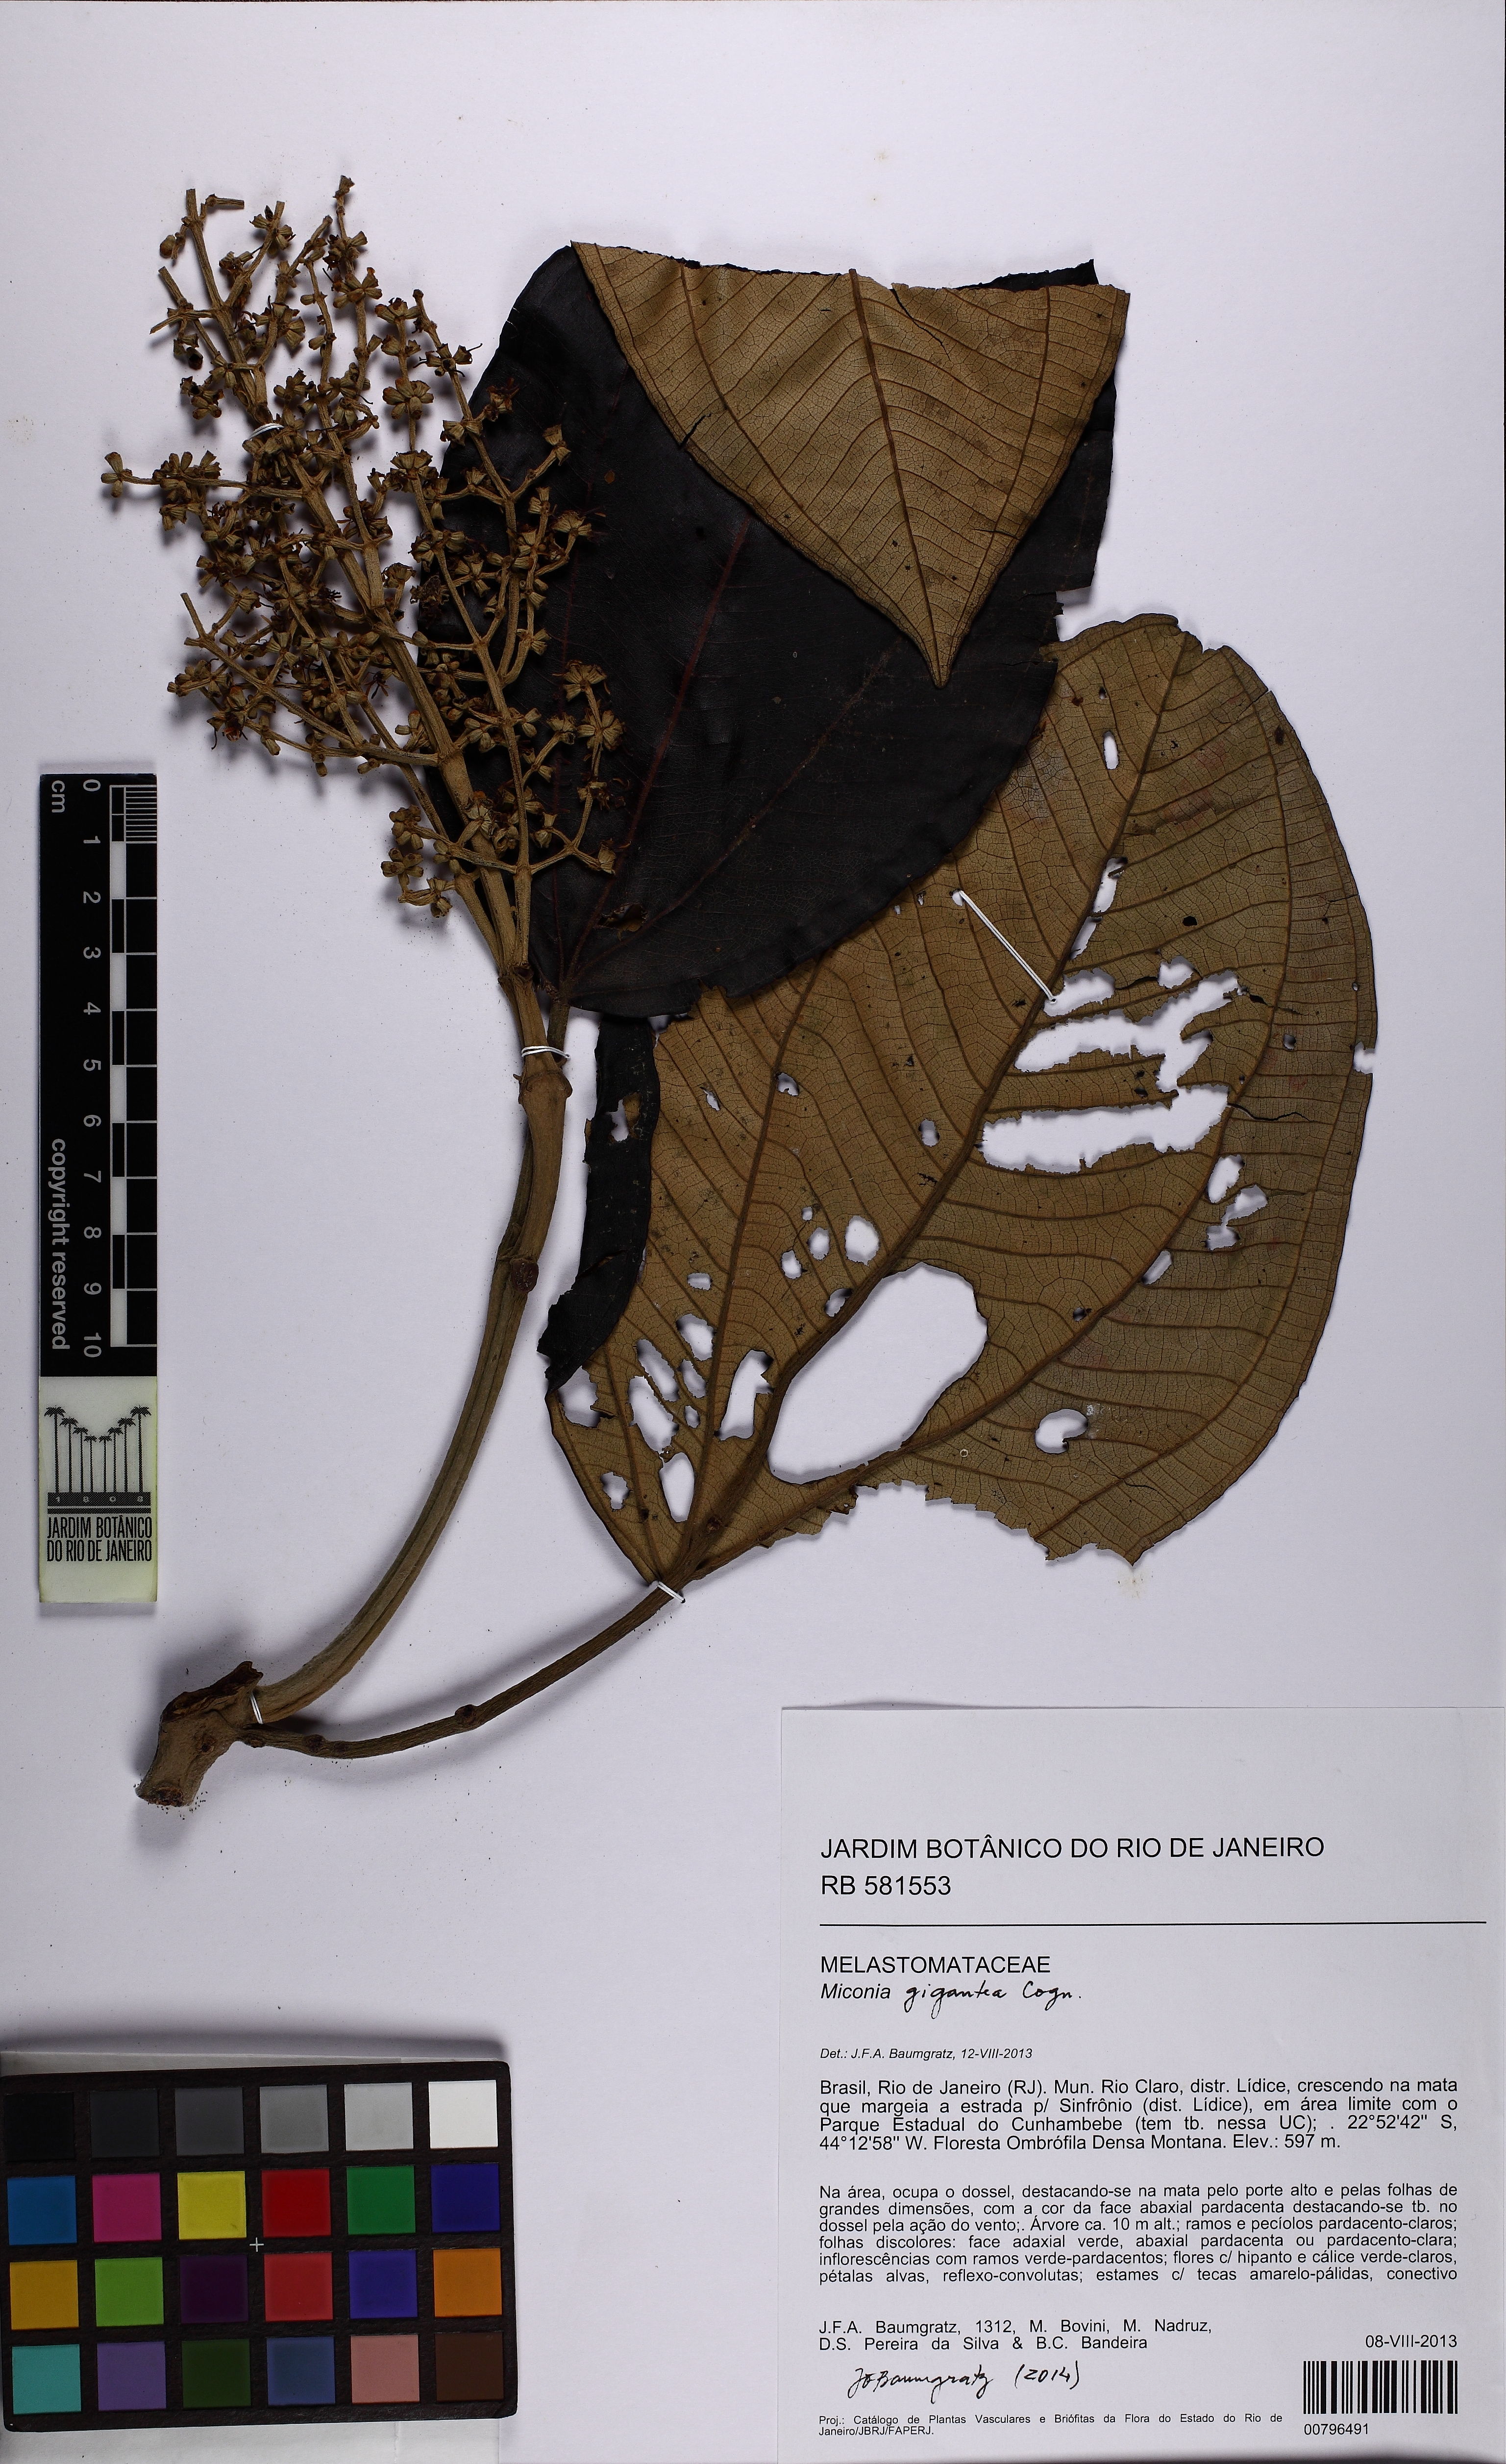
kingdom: Plantae
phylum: Tracheophyta
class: Magnoliopsida
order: Myrtales
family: Melastomataceae
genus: Miconia
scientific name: Miconia formosa
